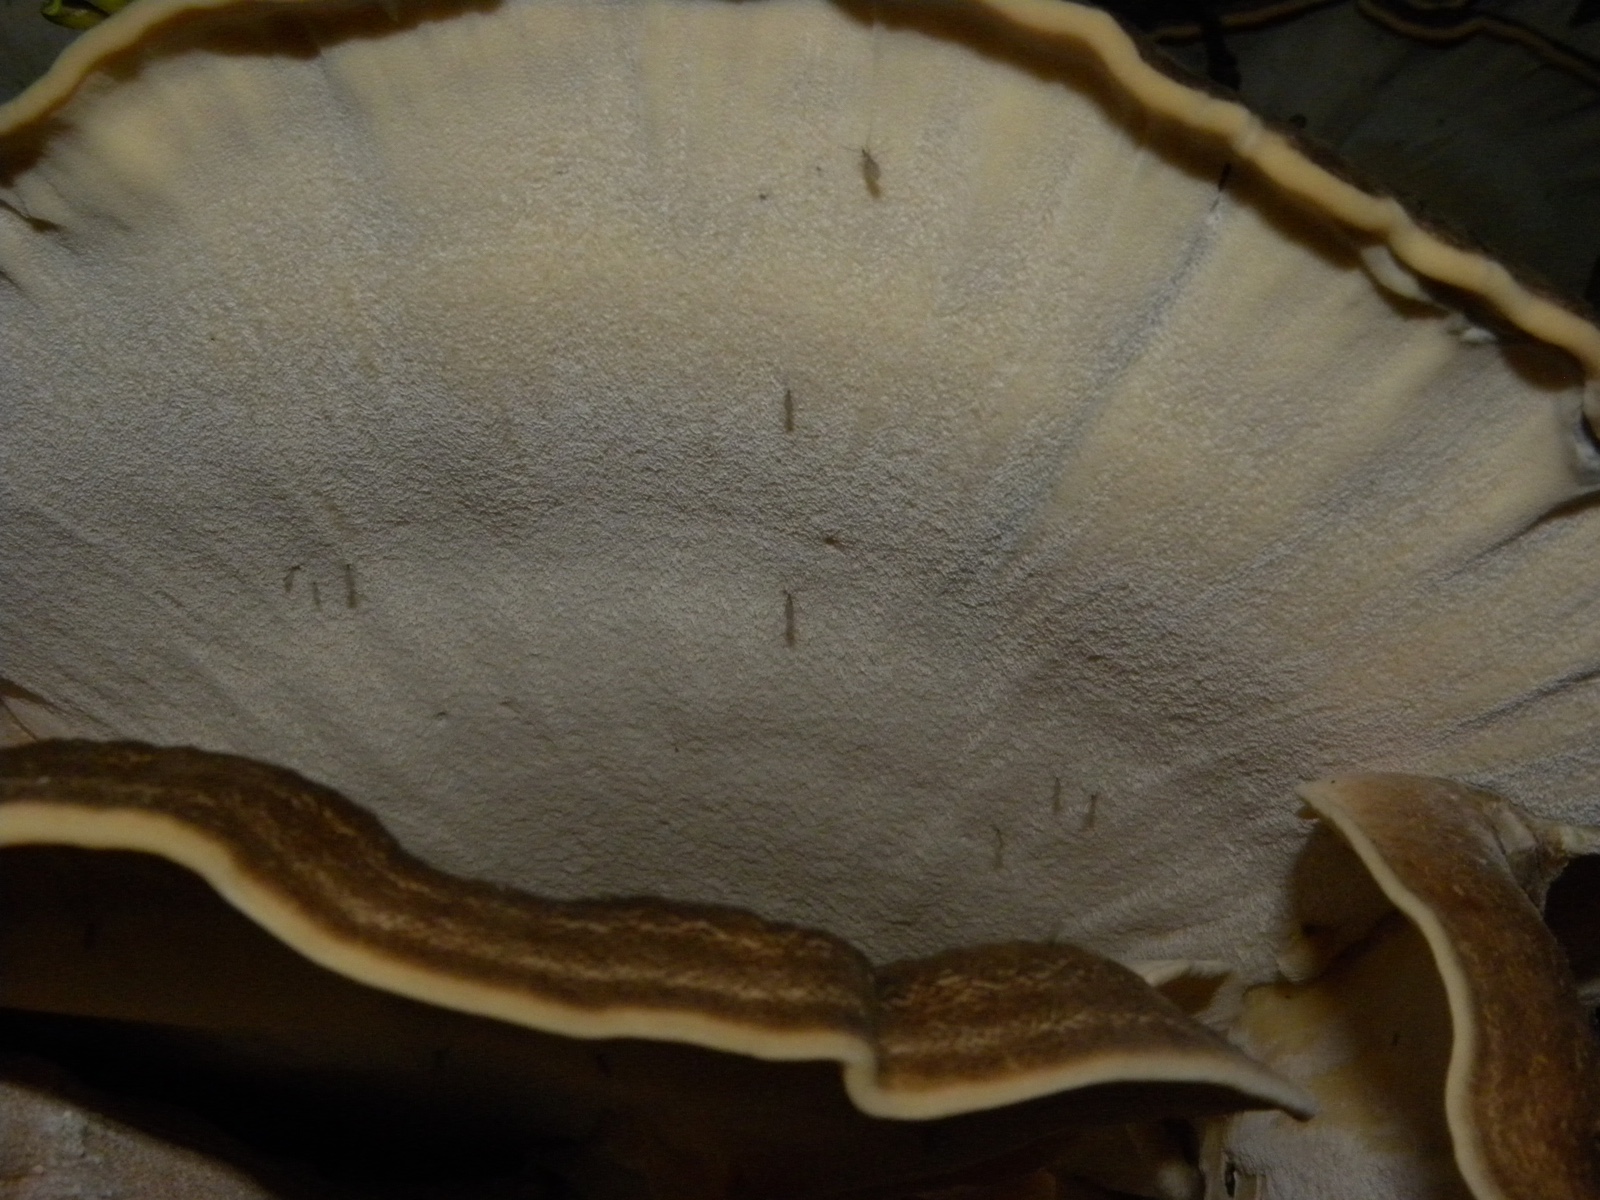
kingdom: Fungi
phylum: Basidiomycota
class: Agaricomycetes
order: Polyporales
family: Meripilaceae
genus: Meripilus
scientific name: Meripilus giganteus
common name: kæmpeporesvamp
